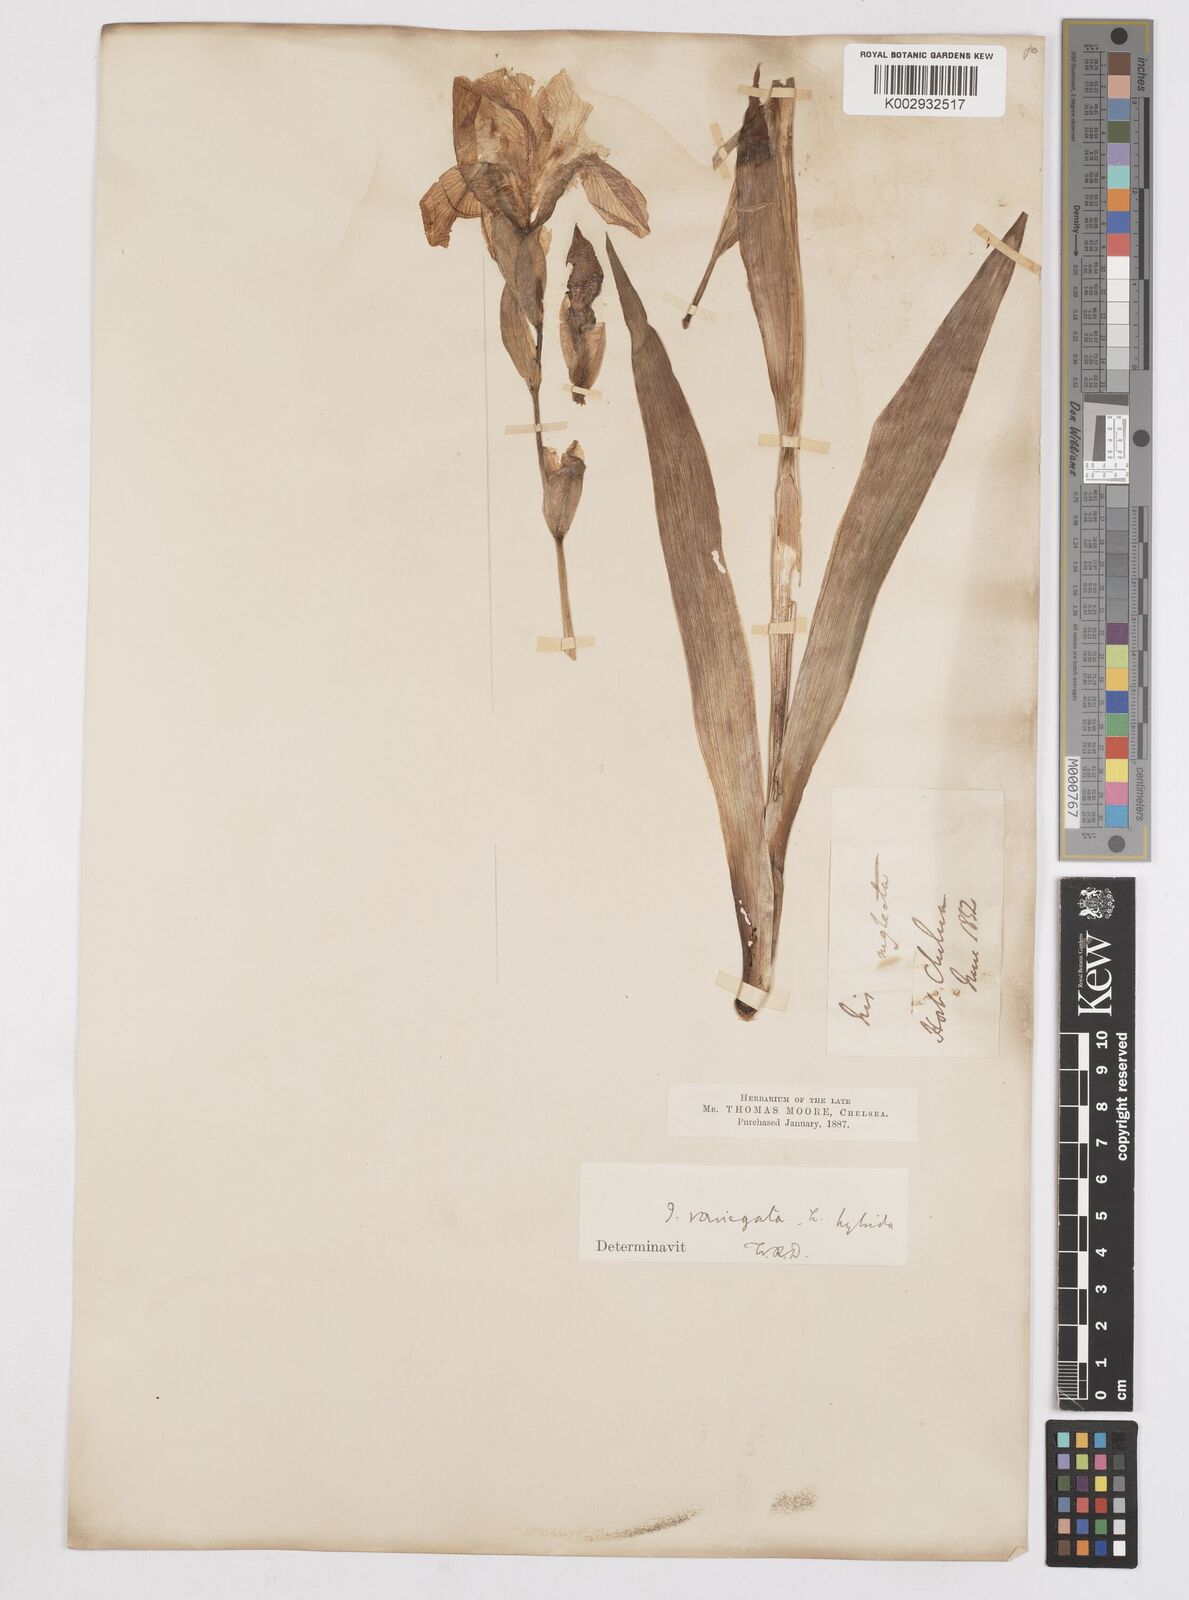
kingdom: Plantae
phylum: Tracheophyta
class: Liliopsida
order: Asparagales
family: Iridaceae
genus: Iris
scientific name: Iris
